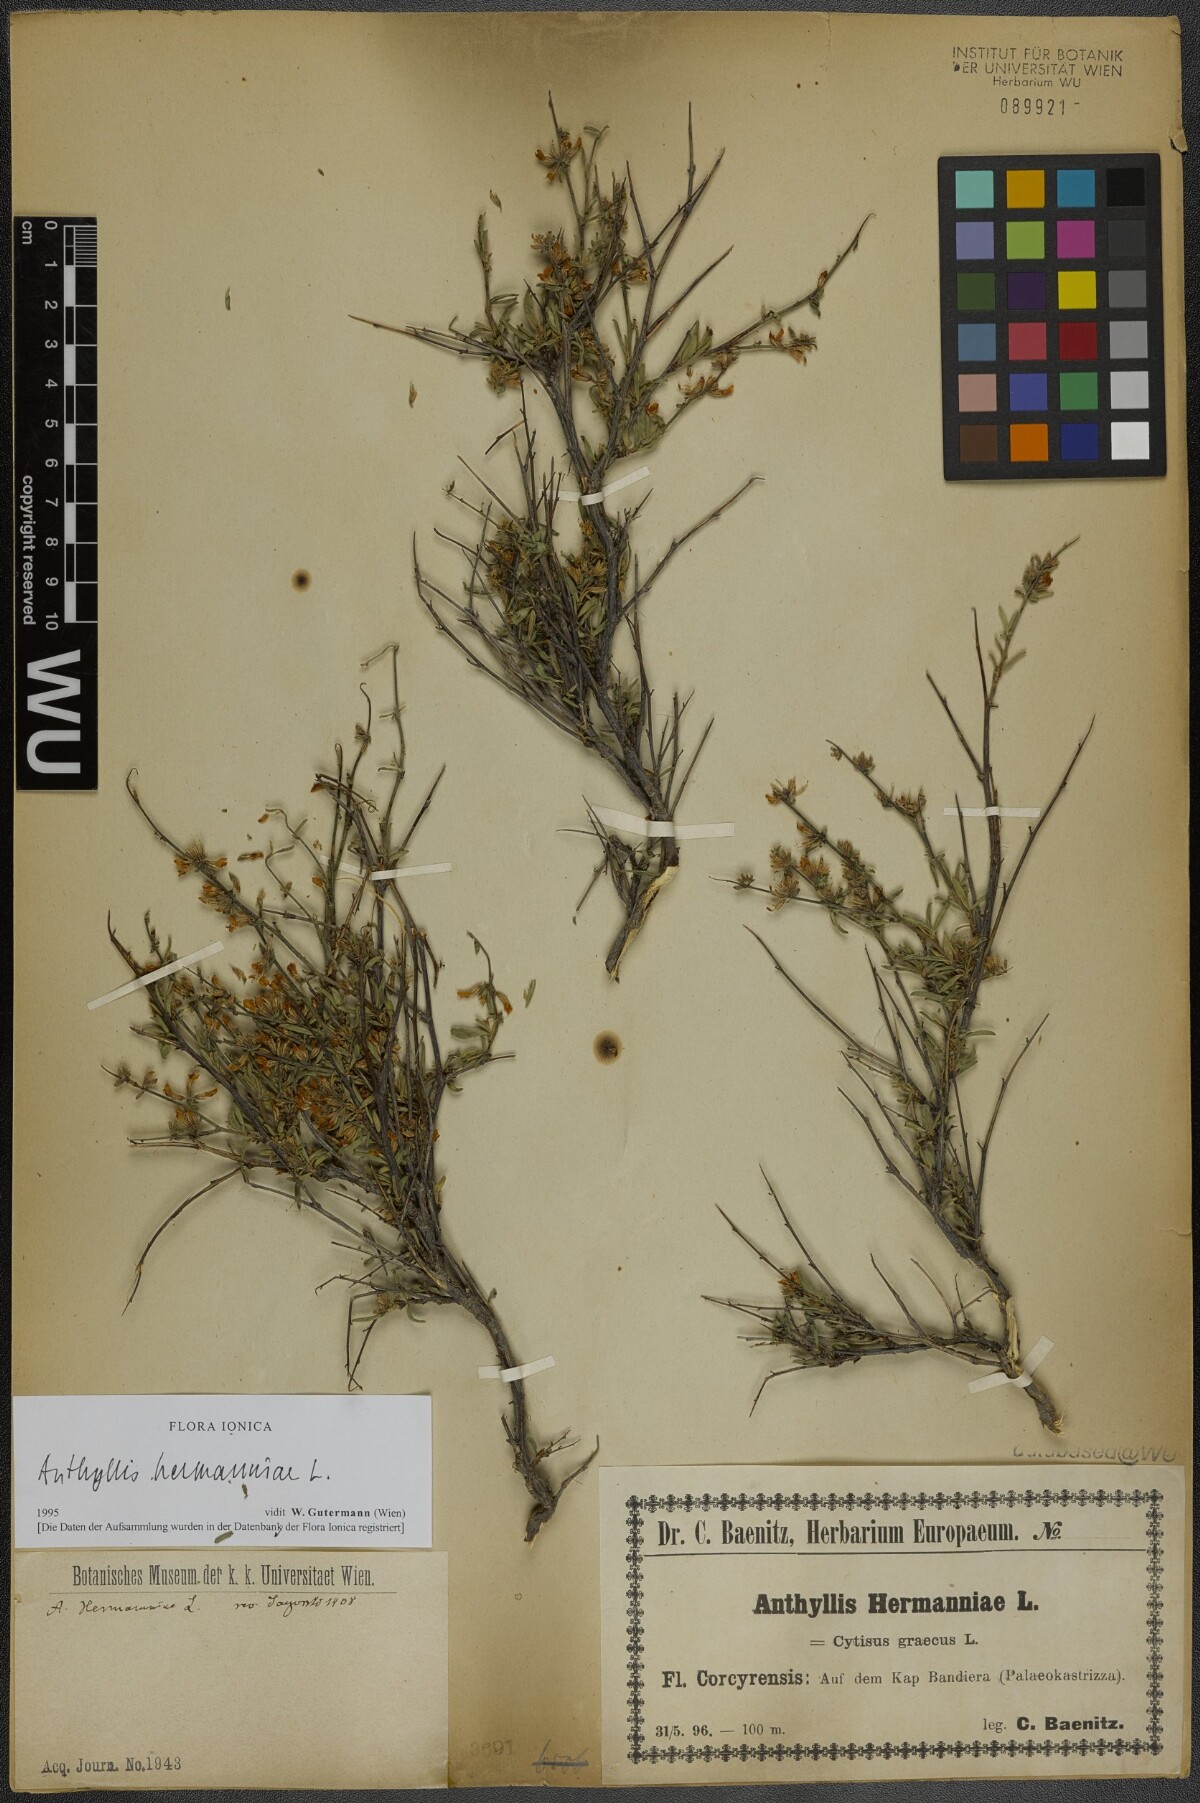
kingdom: Plantae
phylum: Tracheophyta
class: Magnoliopsida
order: Fabales
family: Fabaceae
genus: Anthyllis
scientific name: Anthyllis hermanniae
